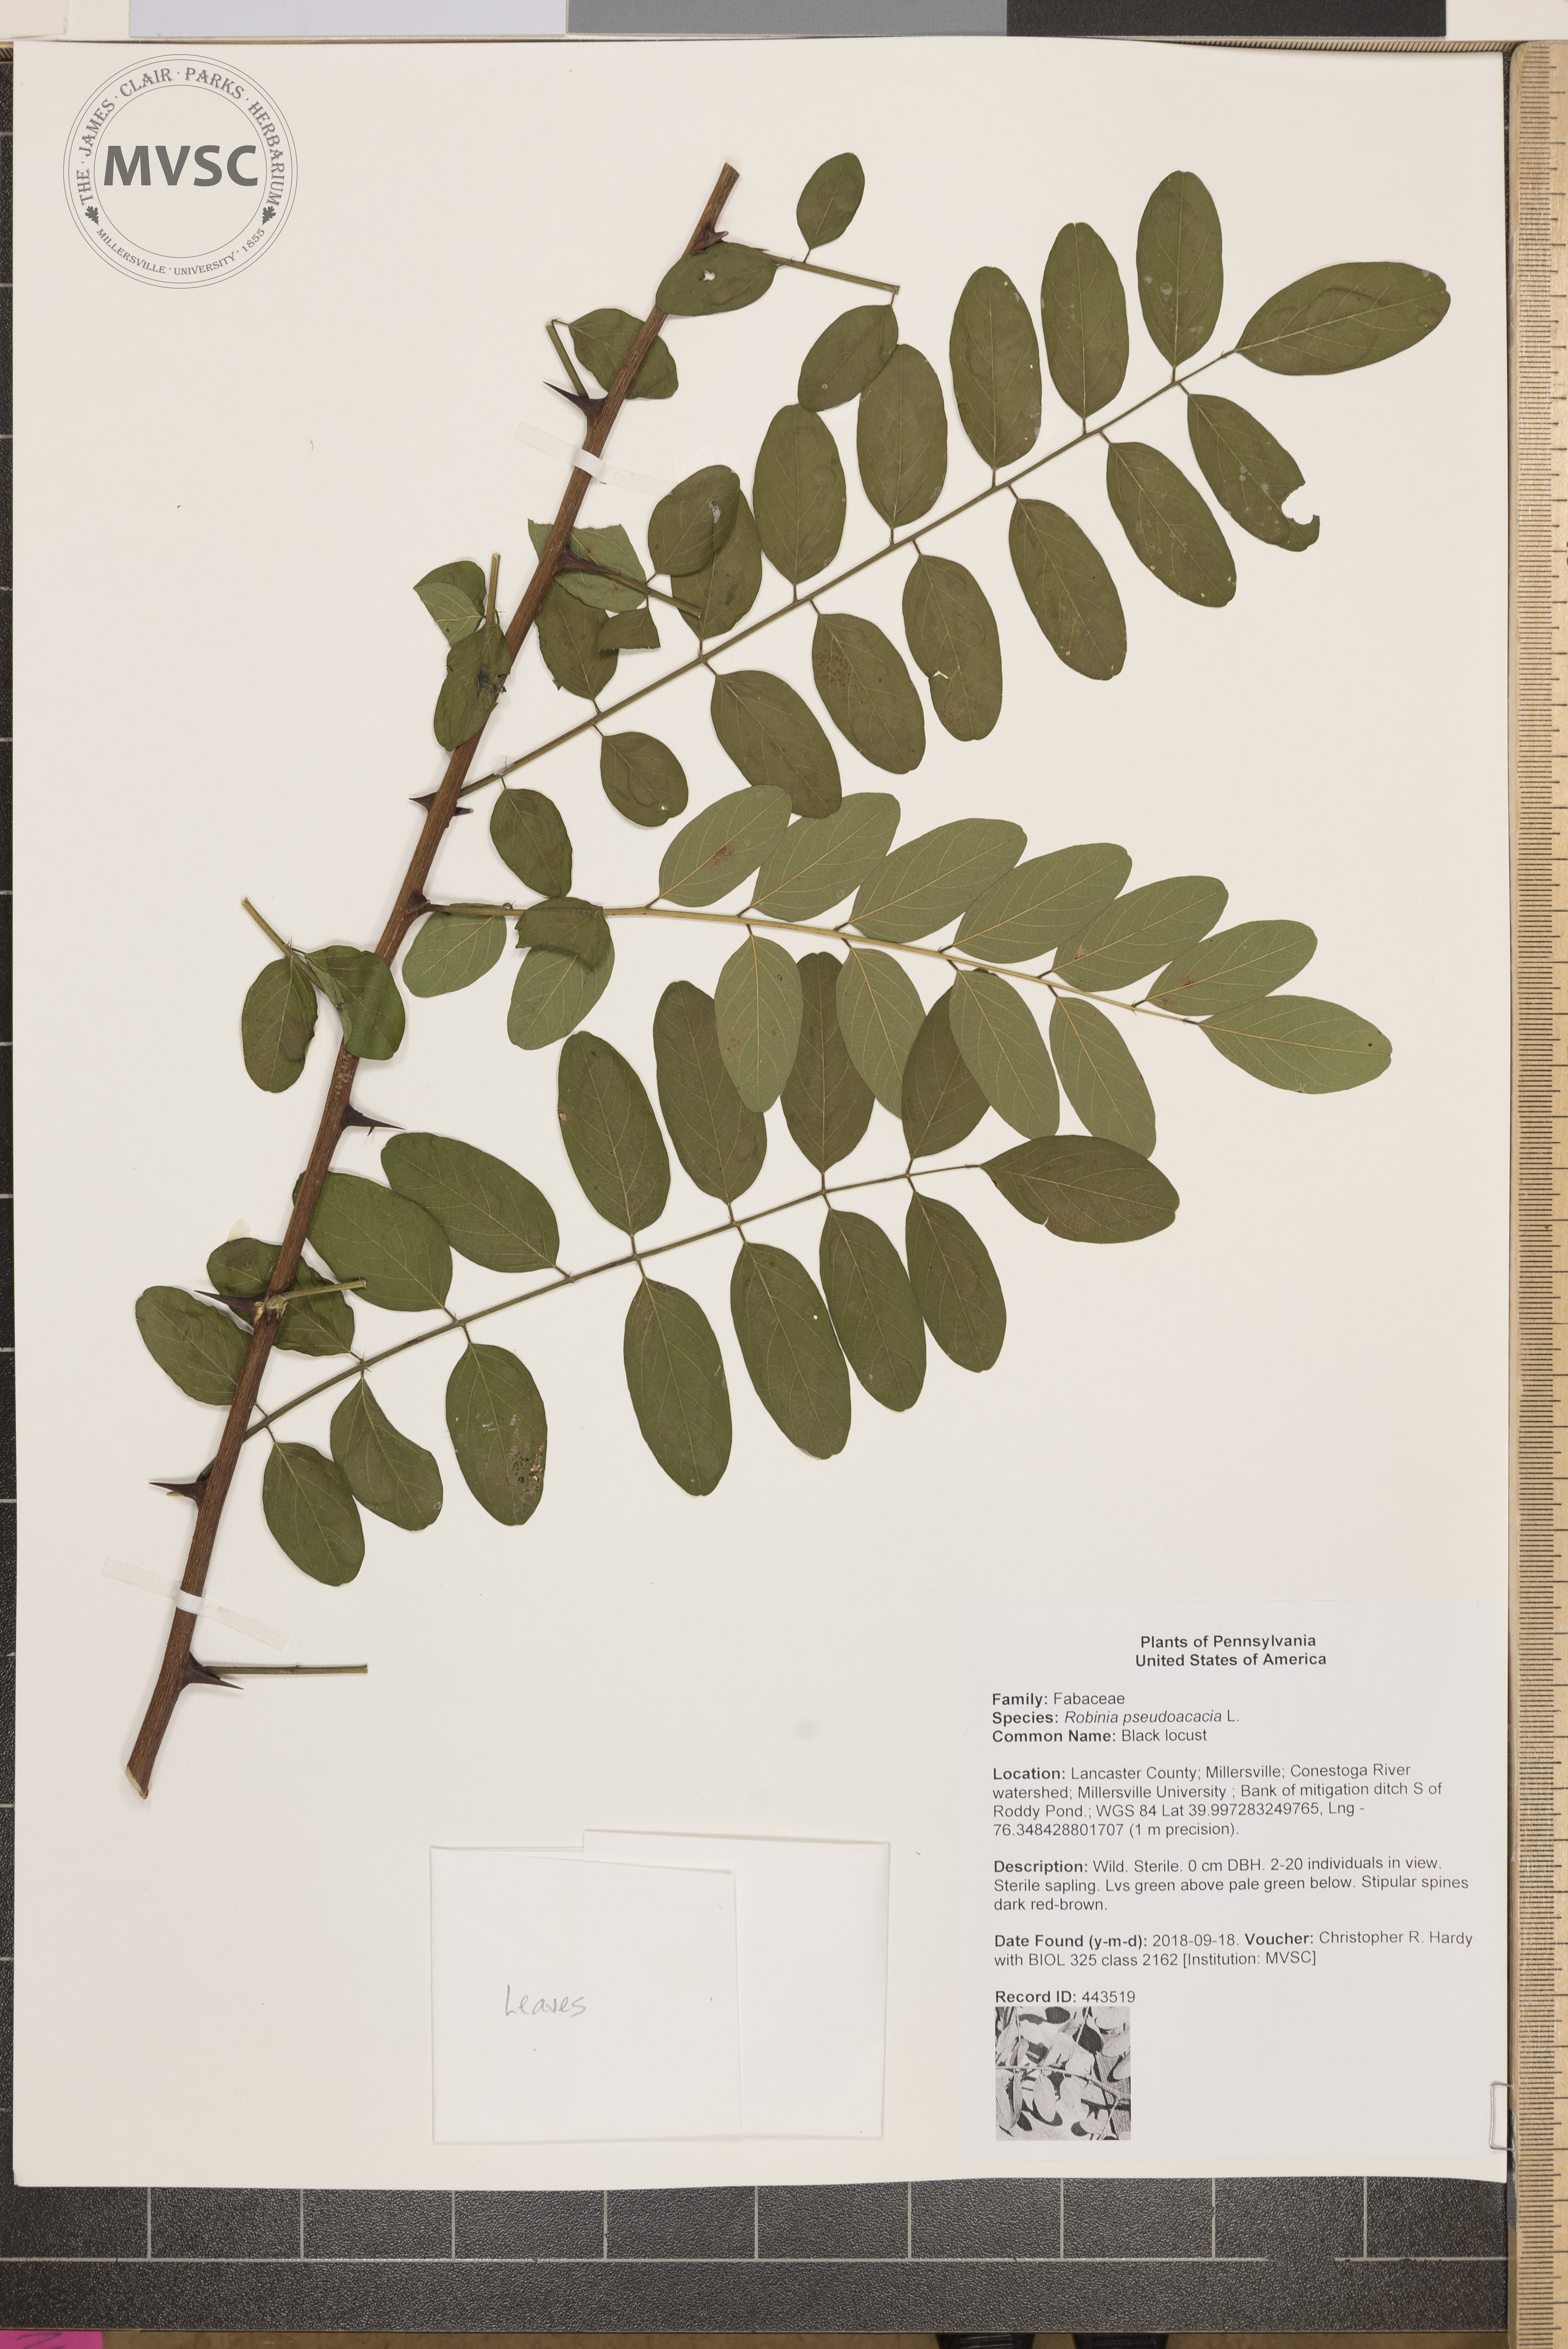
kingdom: Plantae
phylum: Tracheophyta
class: Magnoliopsida
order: Fabales
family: Fabaceae
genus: Robinia
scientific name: Robinia pseudoacacia
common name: Black locust
